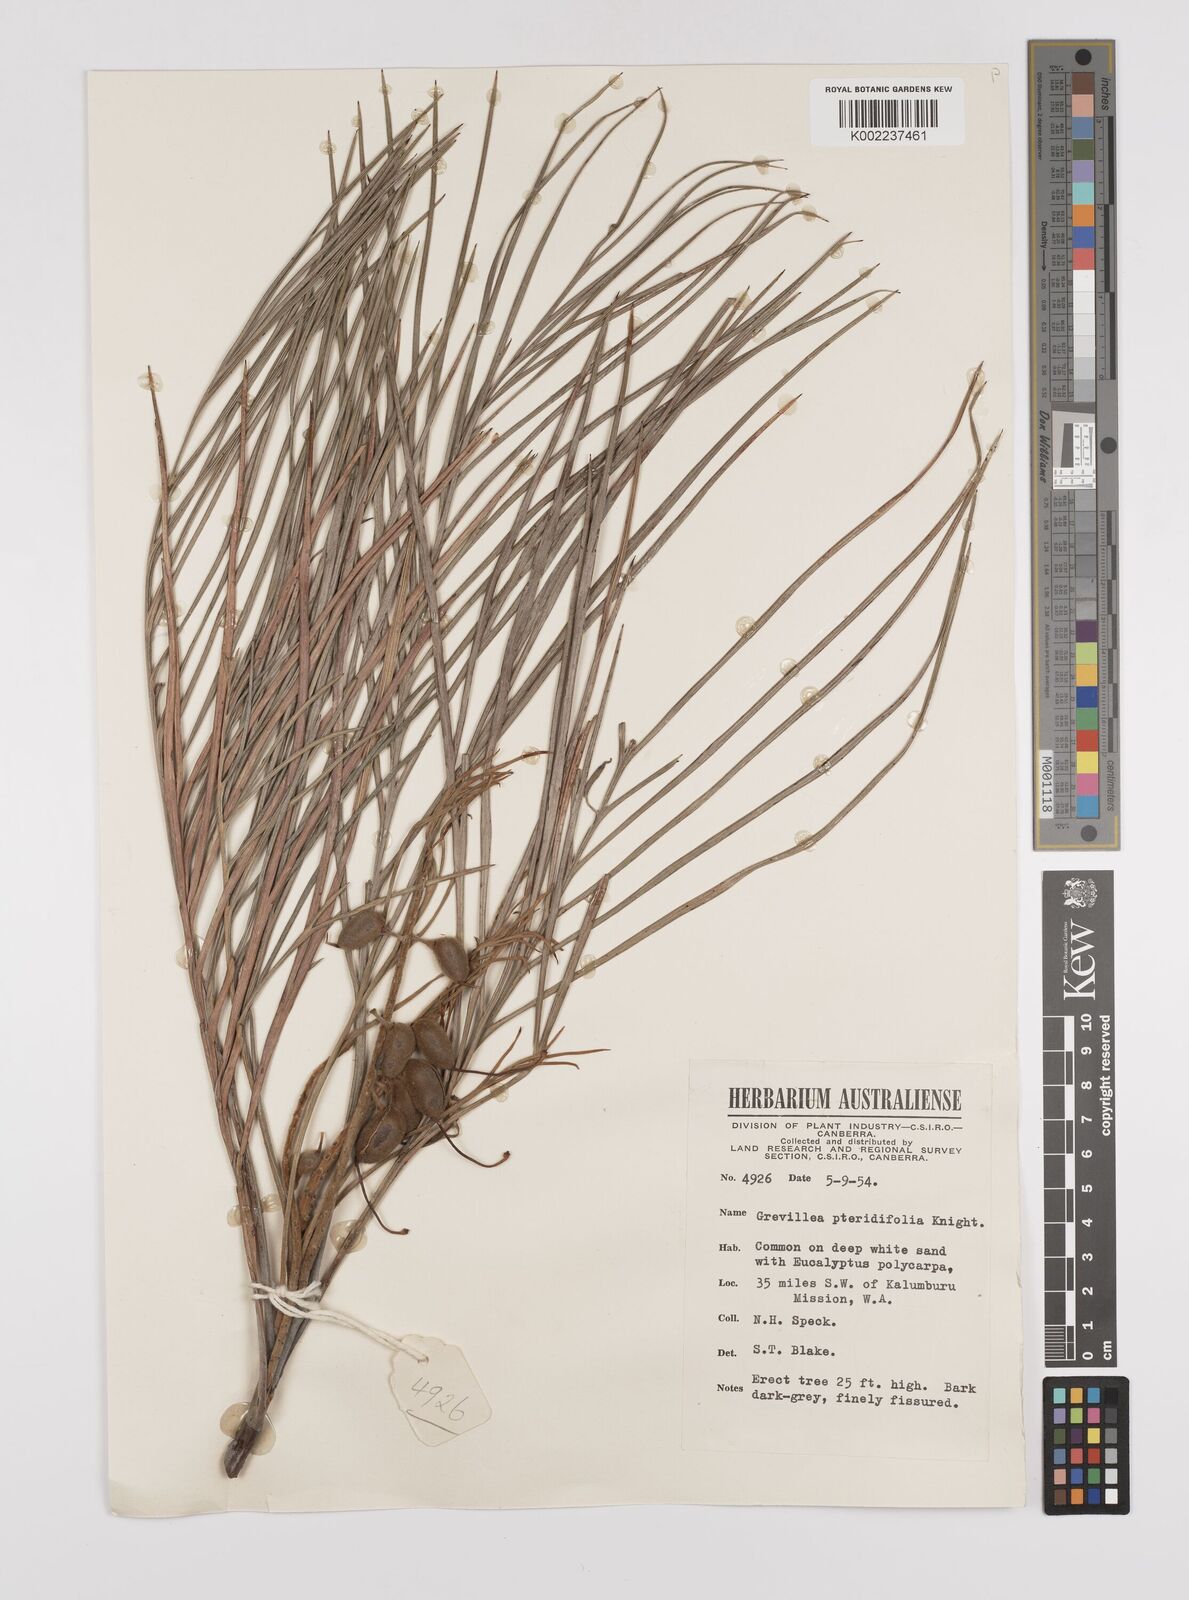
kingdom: Plantae
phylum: Tracheophyta
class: Magnoliopsida
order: Proteales
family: Proteaceae
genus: Grevillea
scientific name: Grevillea pteridifolia
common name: Golden grevillea
